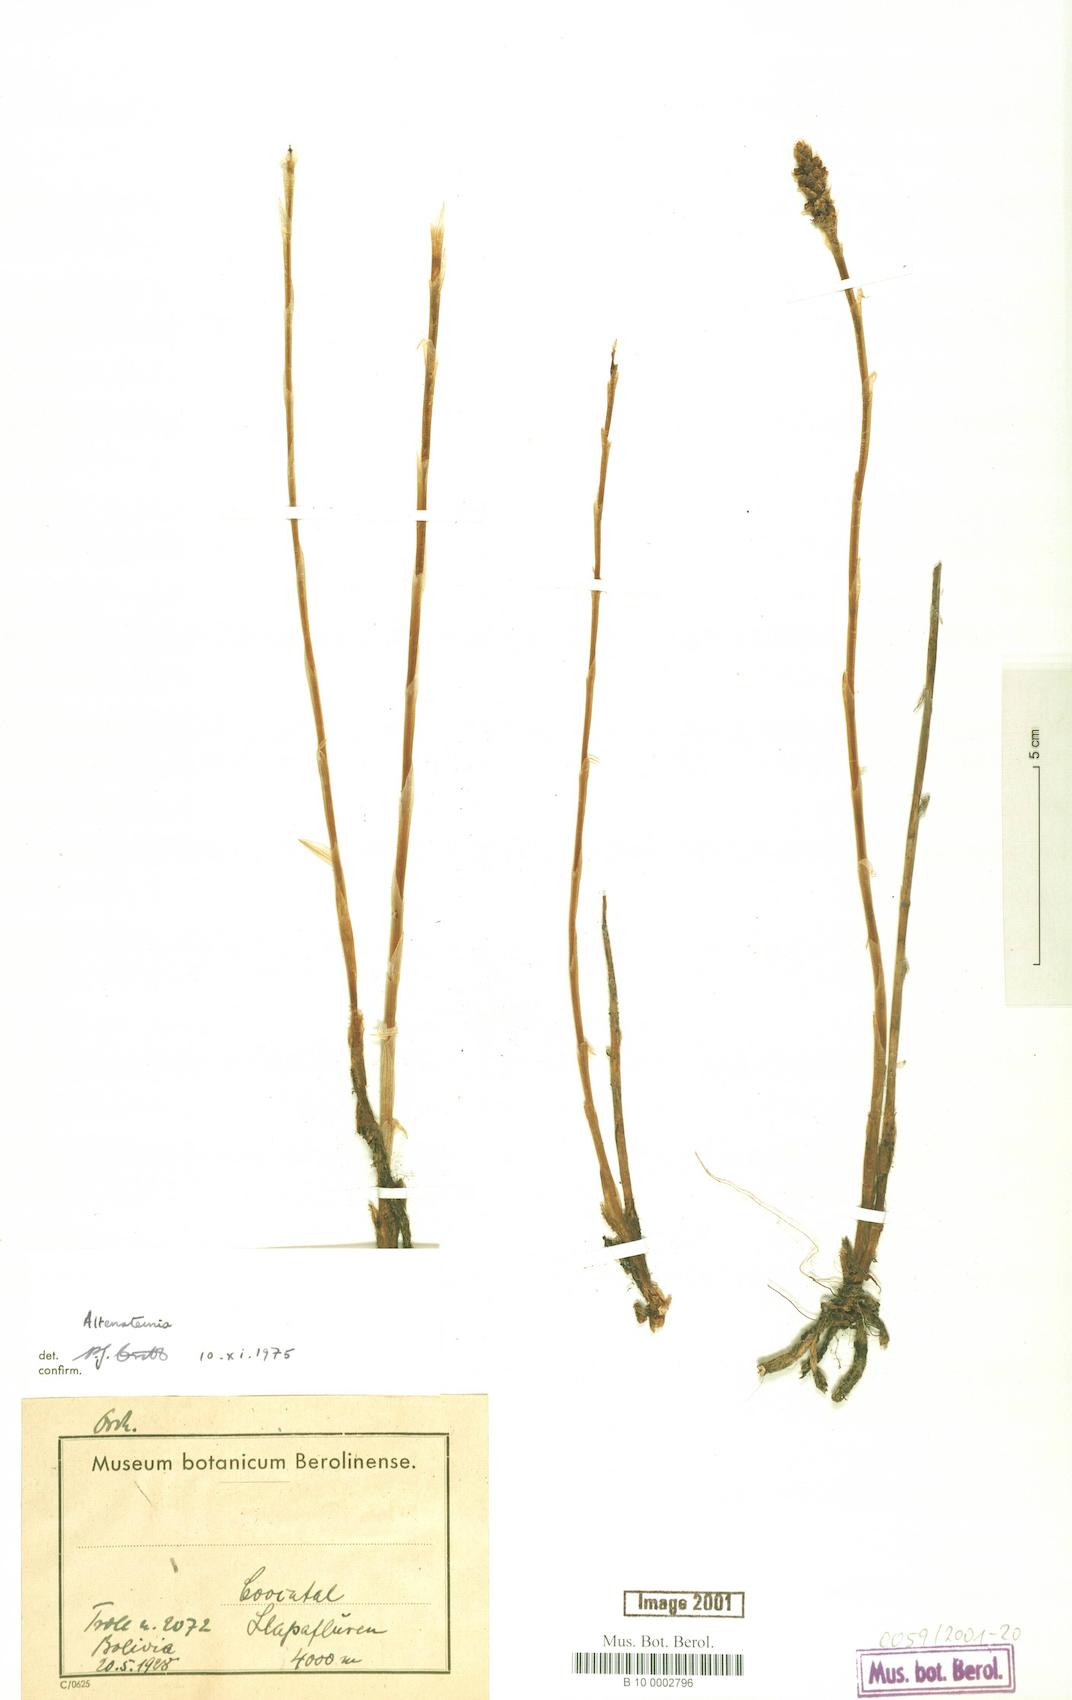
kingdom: Plantae
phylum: Tracheophyta
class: Liliopsida
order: Asparagales
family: Orchidaceae
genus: Altensteinia
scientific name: Altensteinia
